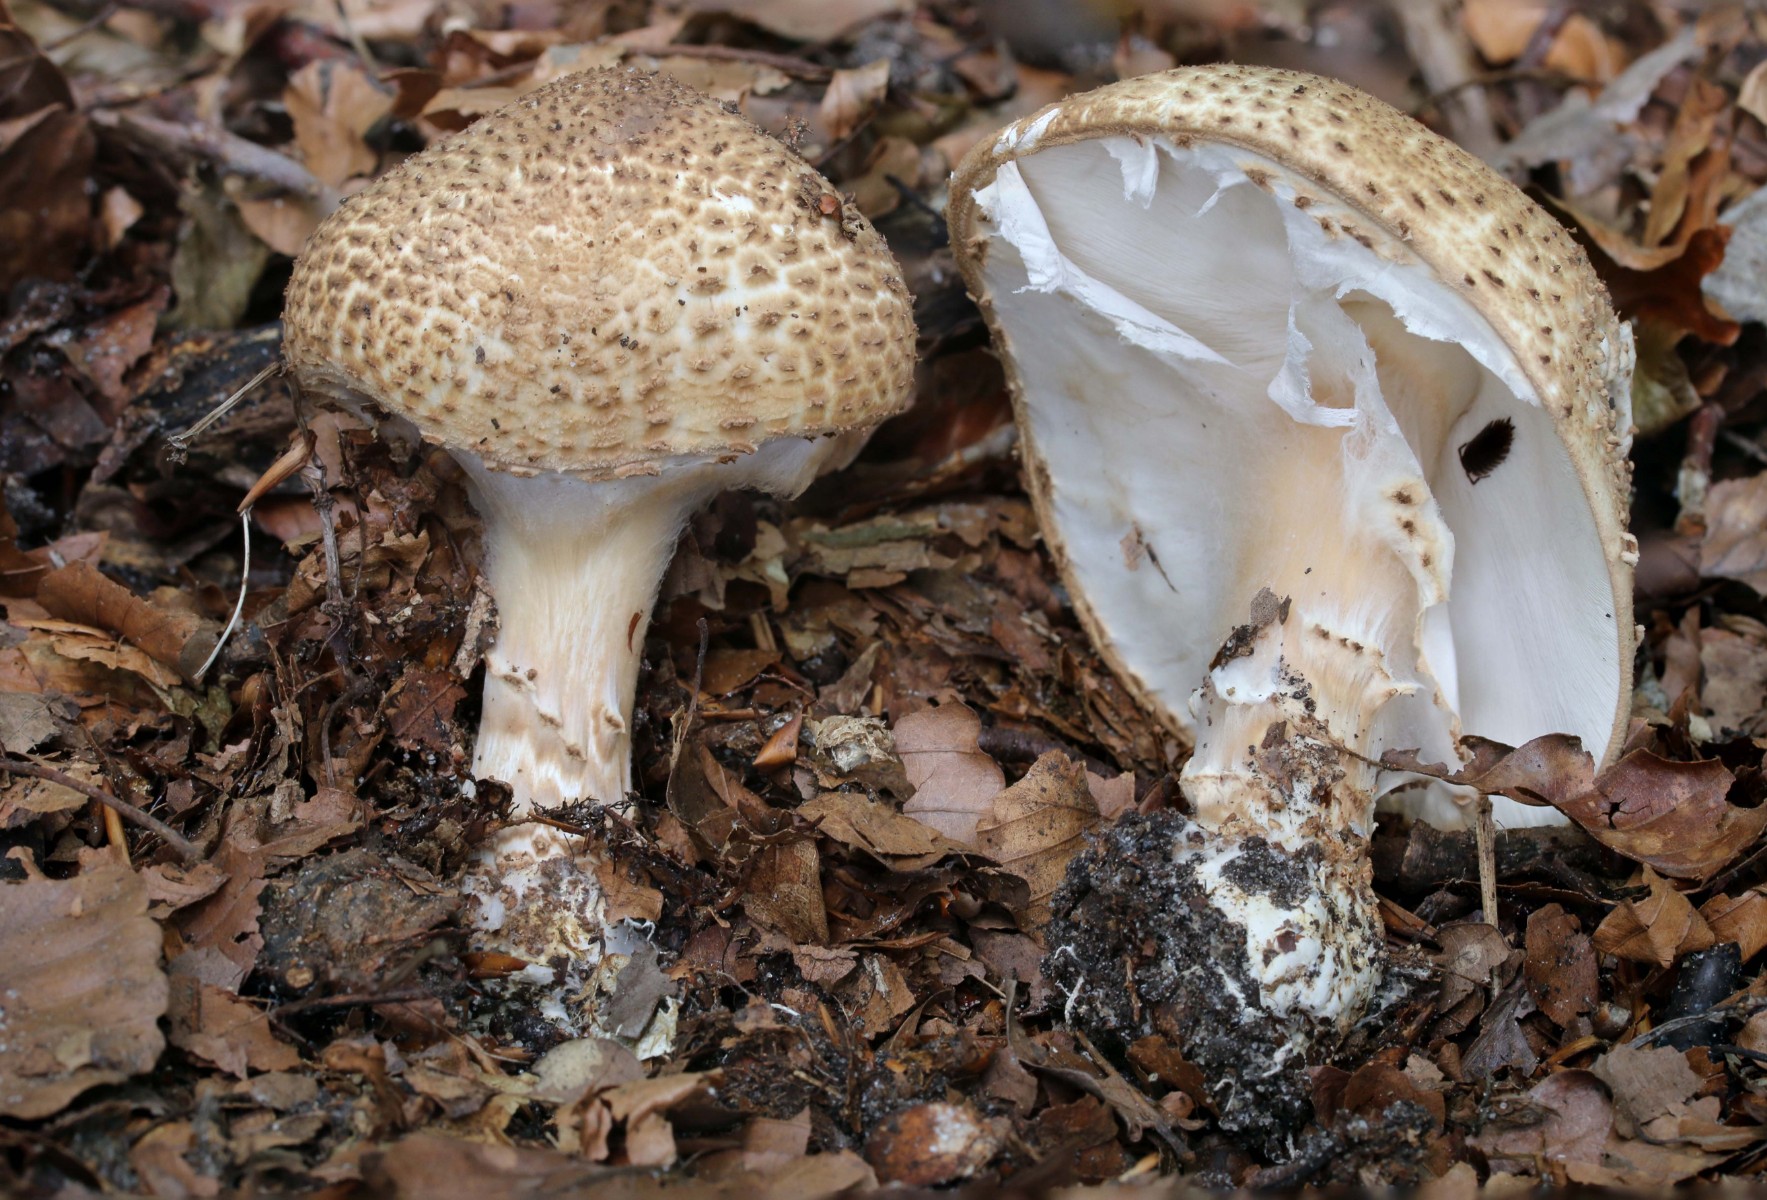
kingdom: Fungi
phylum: Basidiomycota
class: Agaricomycetes
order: Agaricales
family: Agaricaceae
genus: Echinoderma
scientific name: Echinoderma asperum
